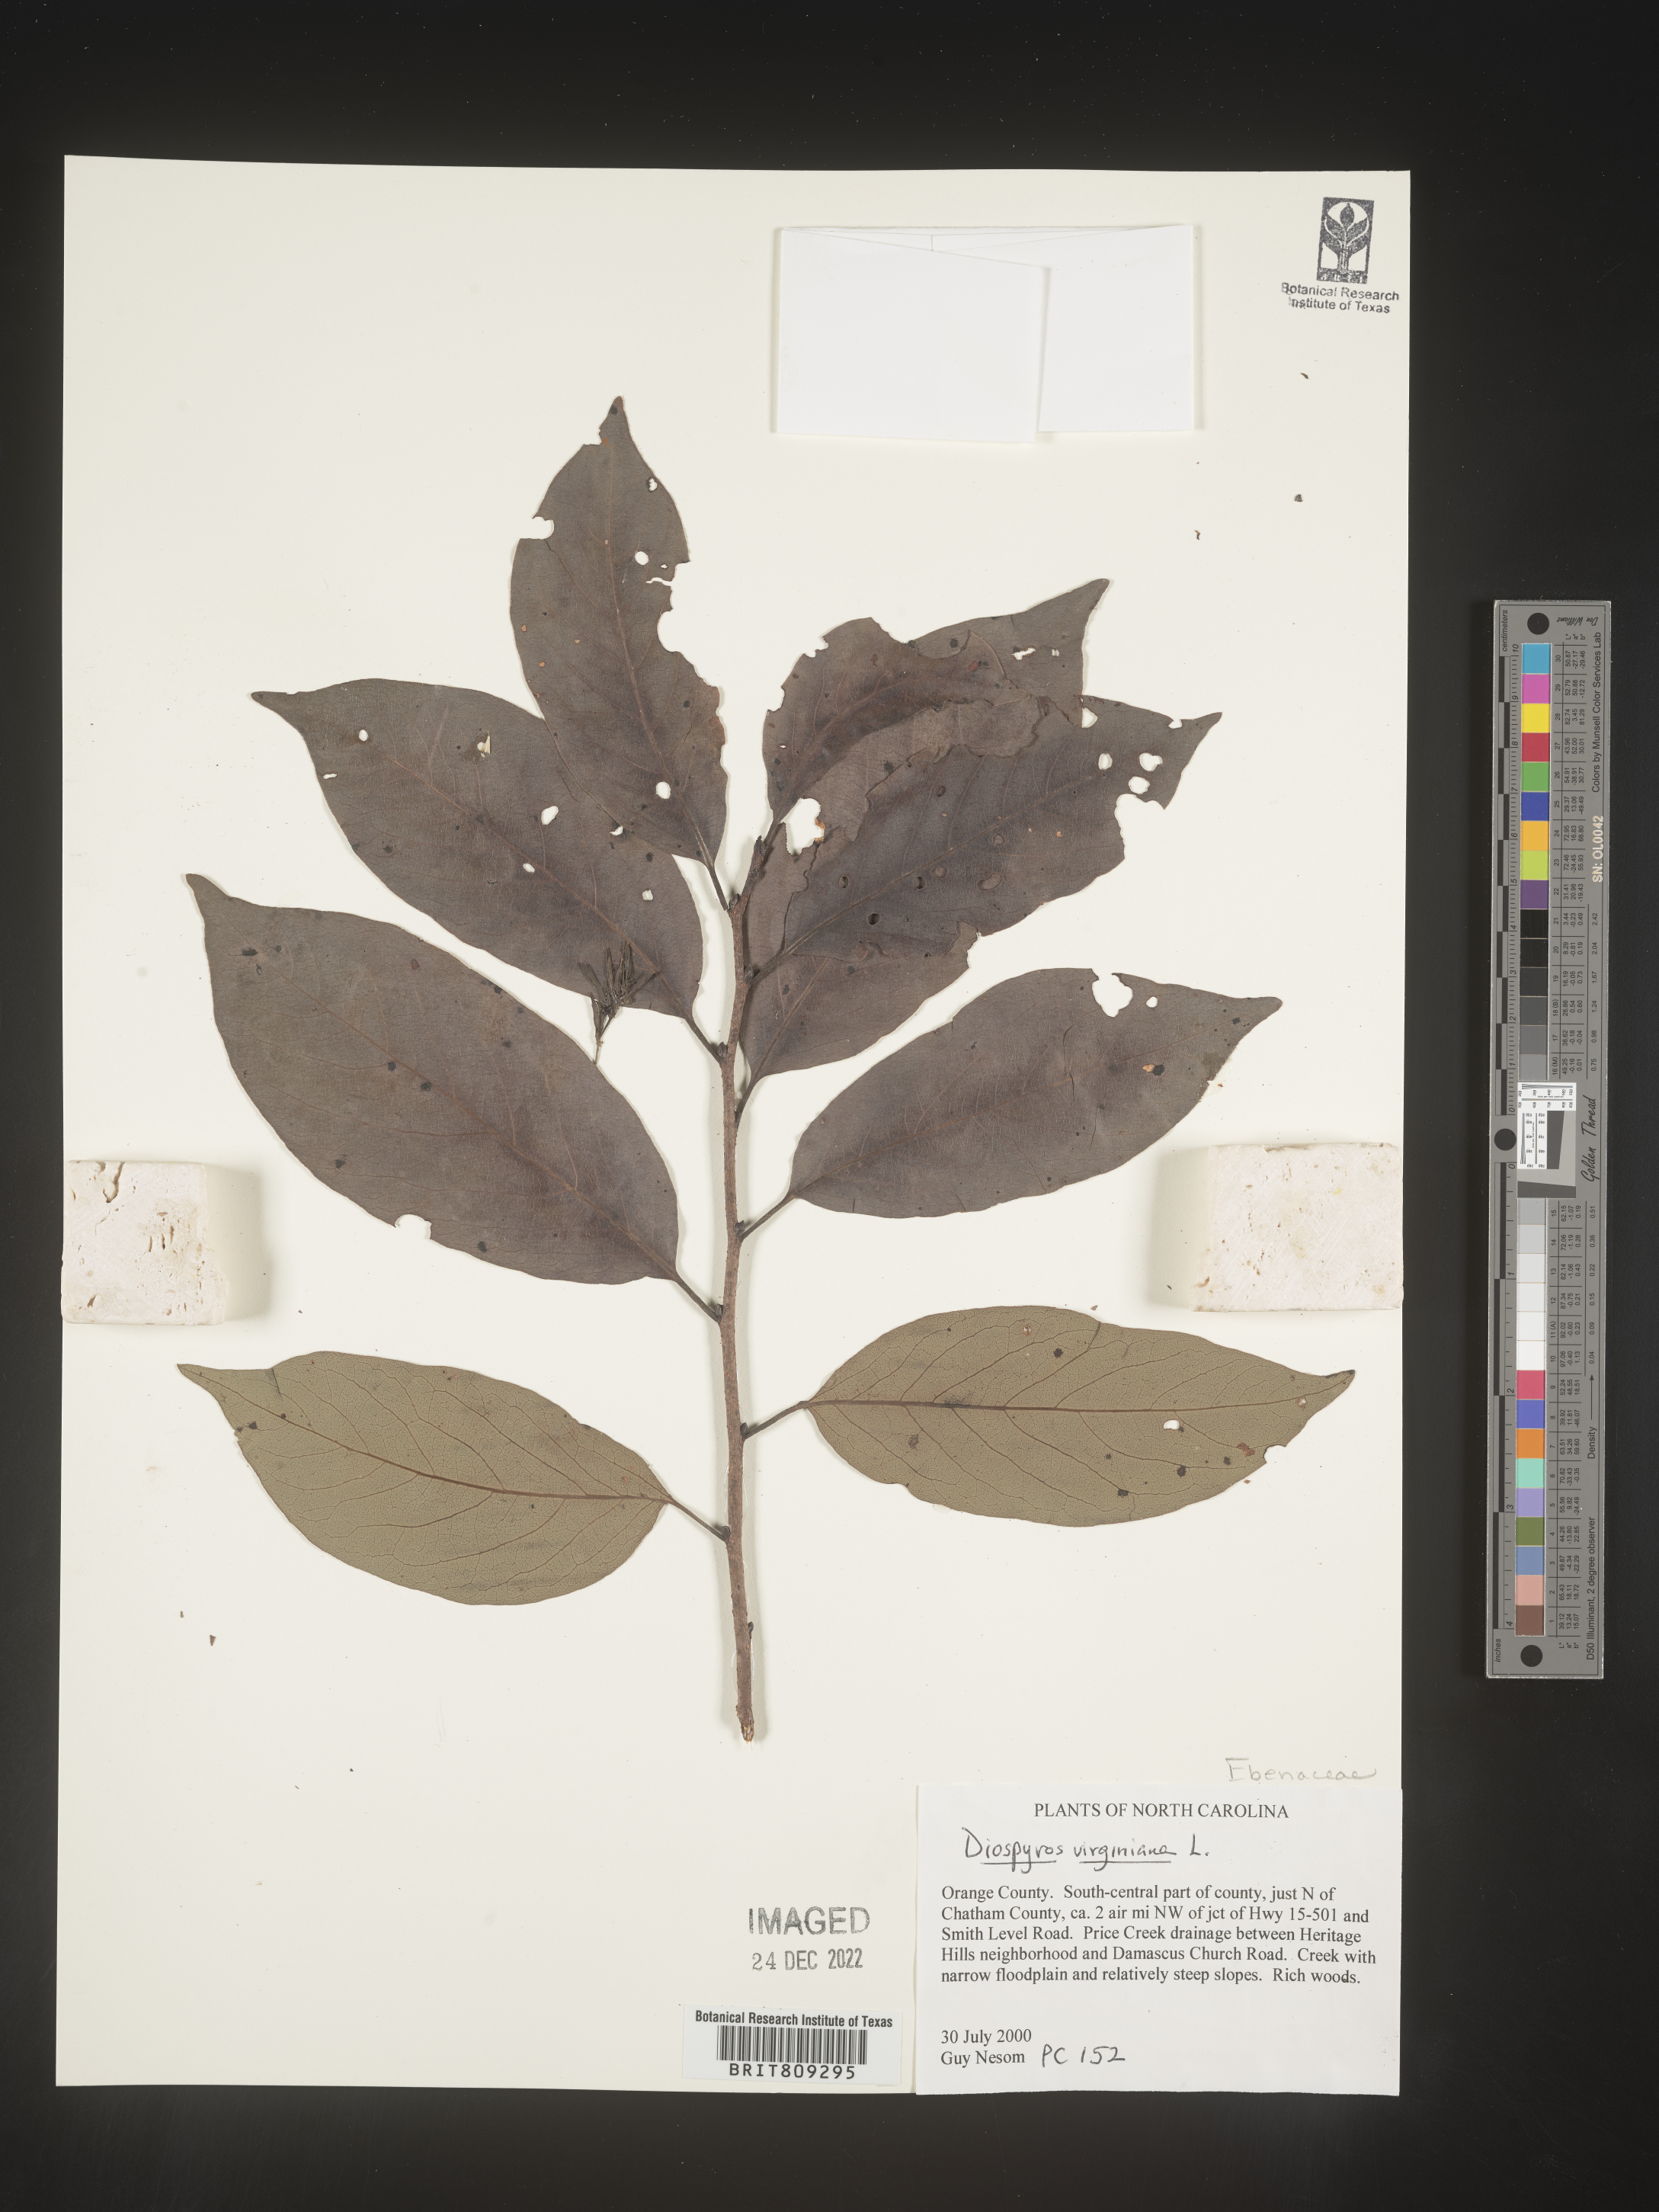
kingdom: Plantae
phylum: Tracheophyta
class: Magnoliopsida
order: Ericales
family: Ebenaceae
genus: Diospyros
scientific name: Diospyros virginiana
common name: Persimmon
